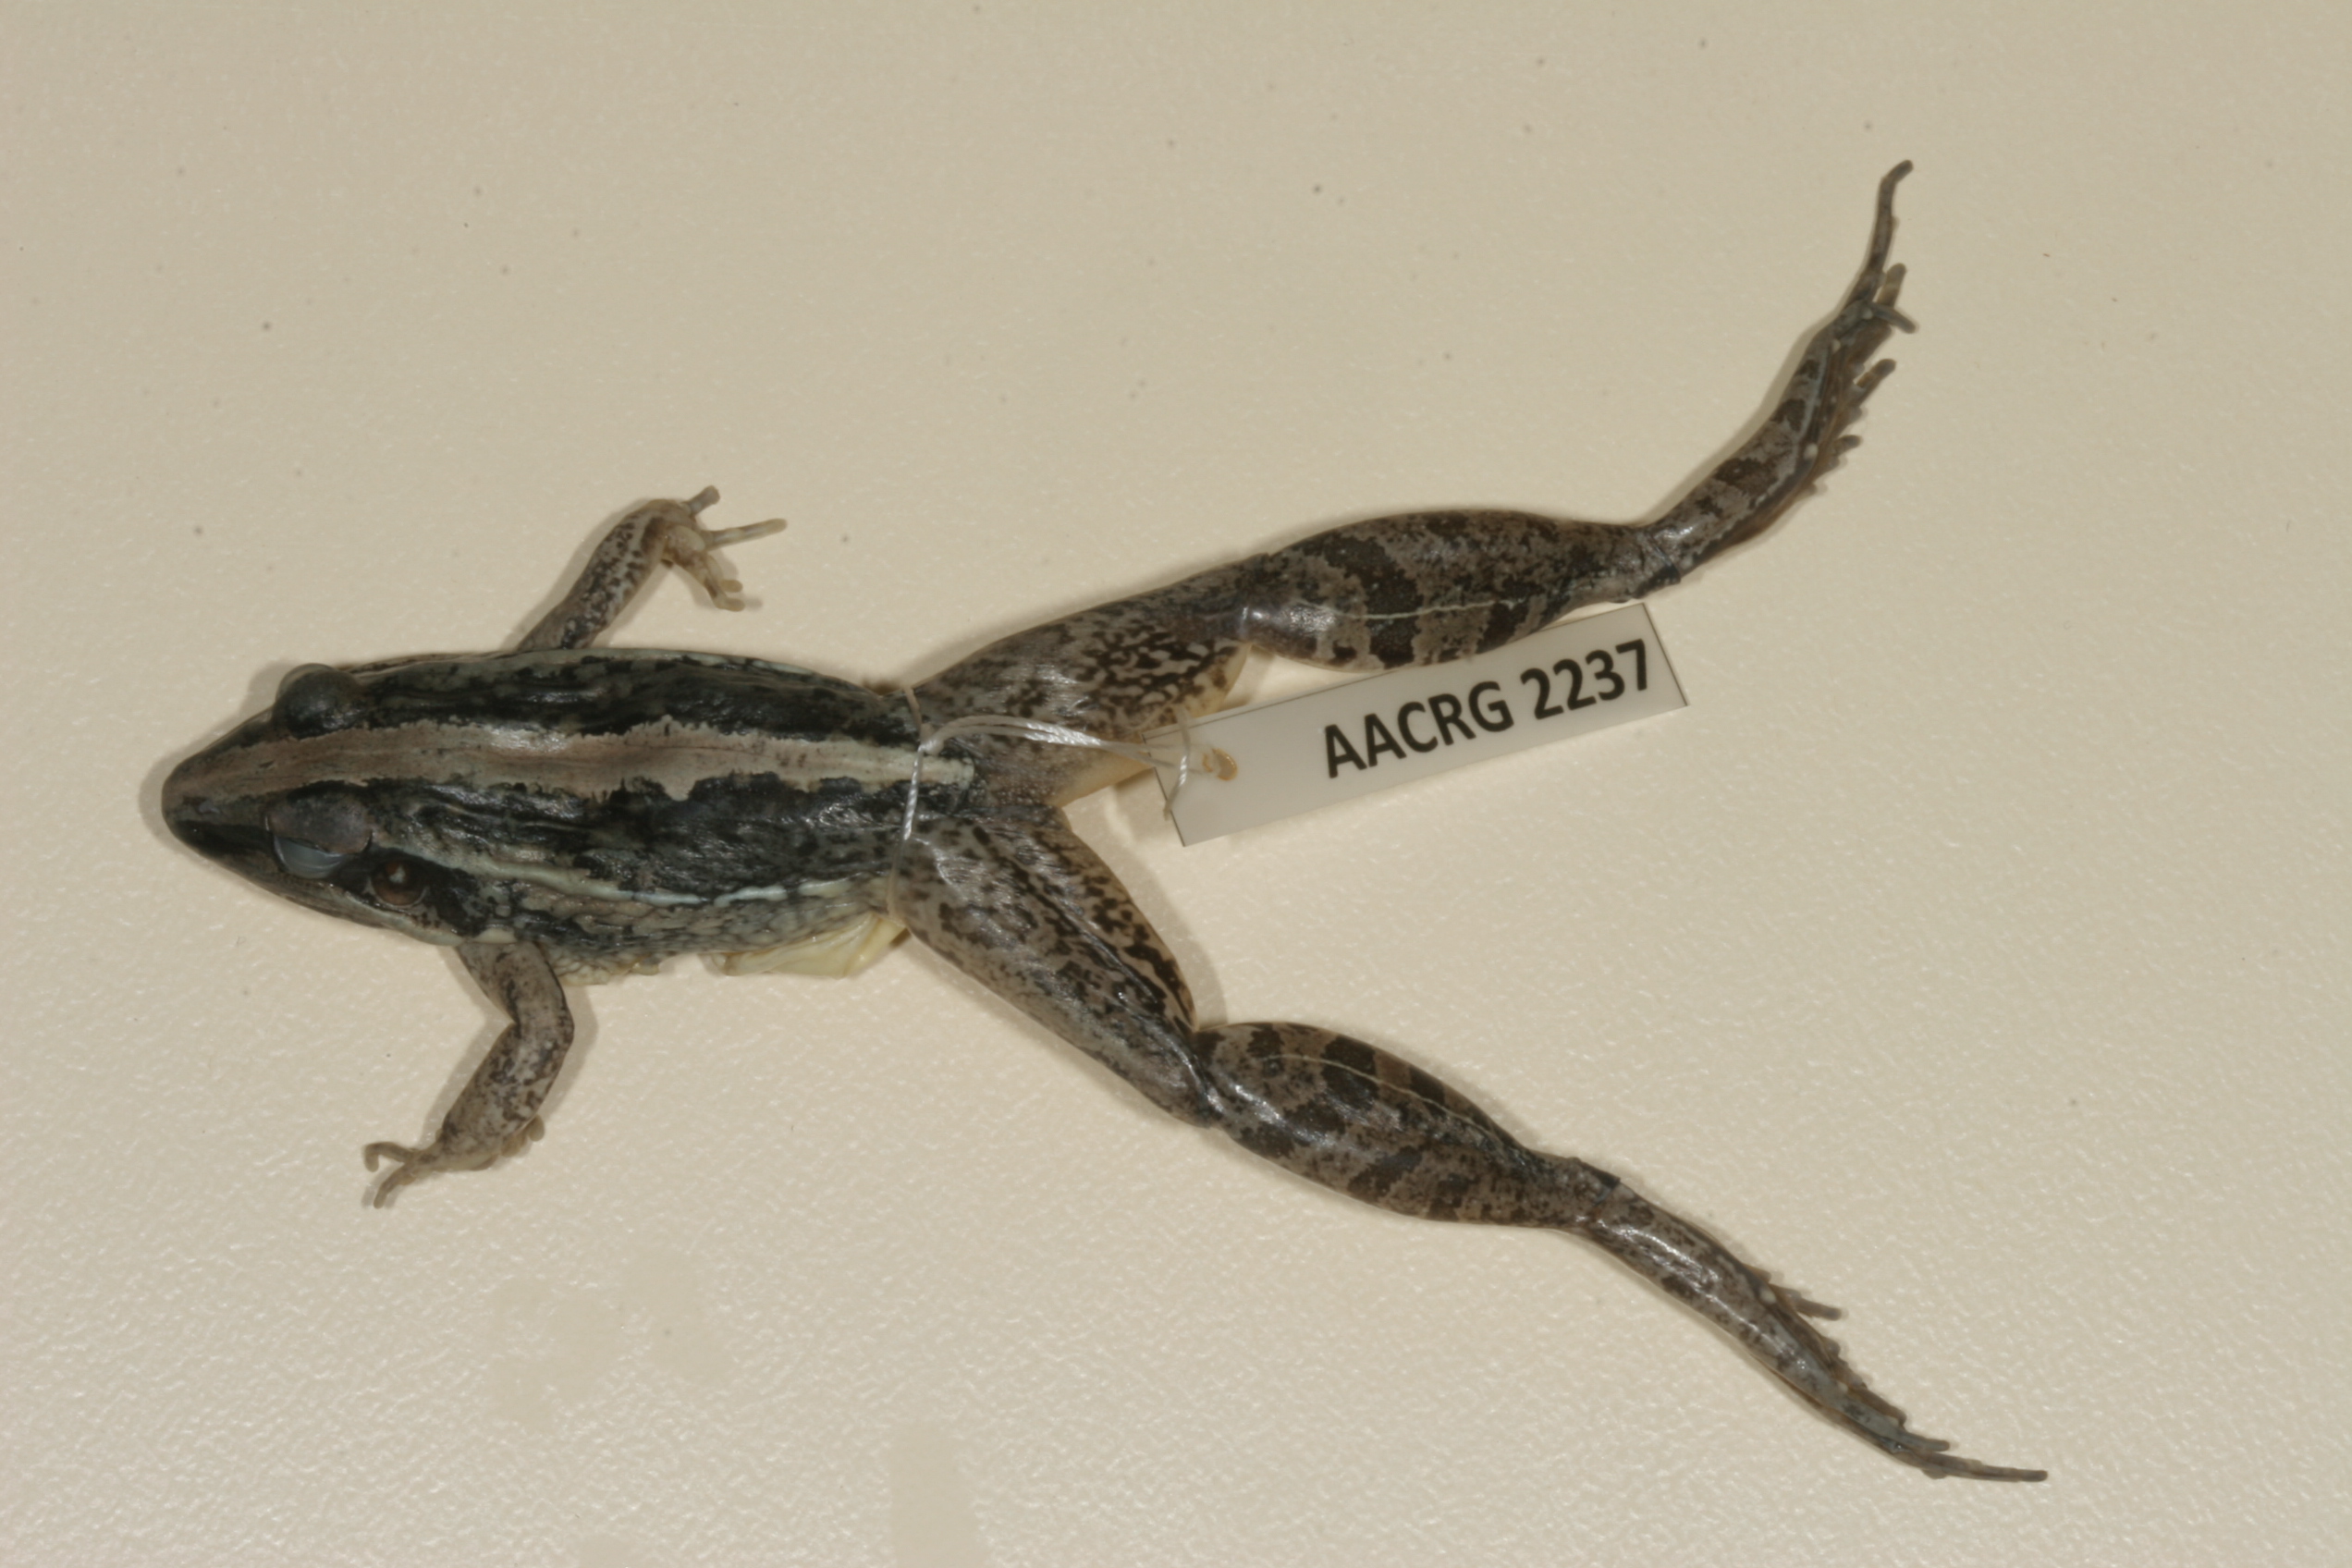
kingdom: Animalia
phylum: Chordata
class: Amphibia
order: Anura
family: Ptychadenidae
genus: Ptychadena
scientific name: Ptychadena mossambica
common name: Mozambique ridged frog
